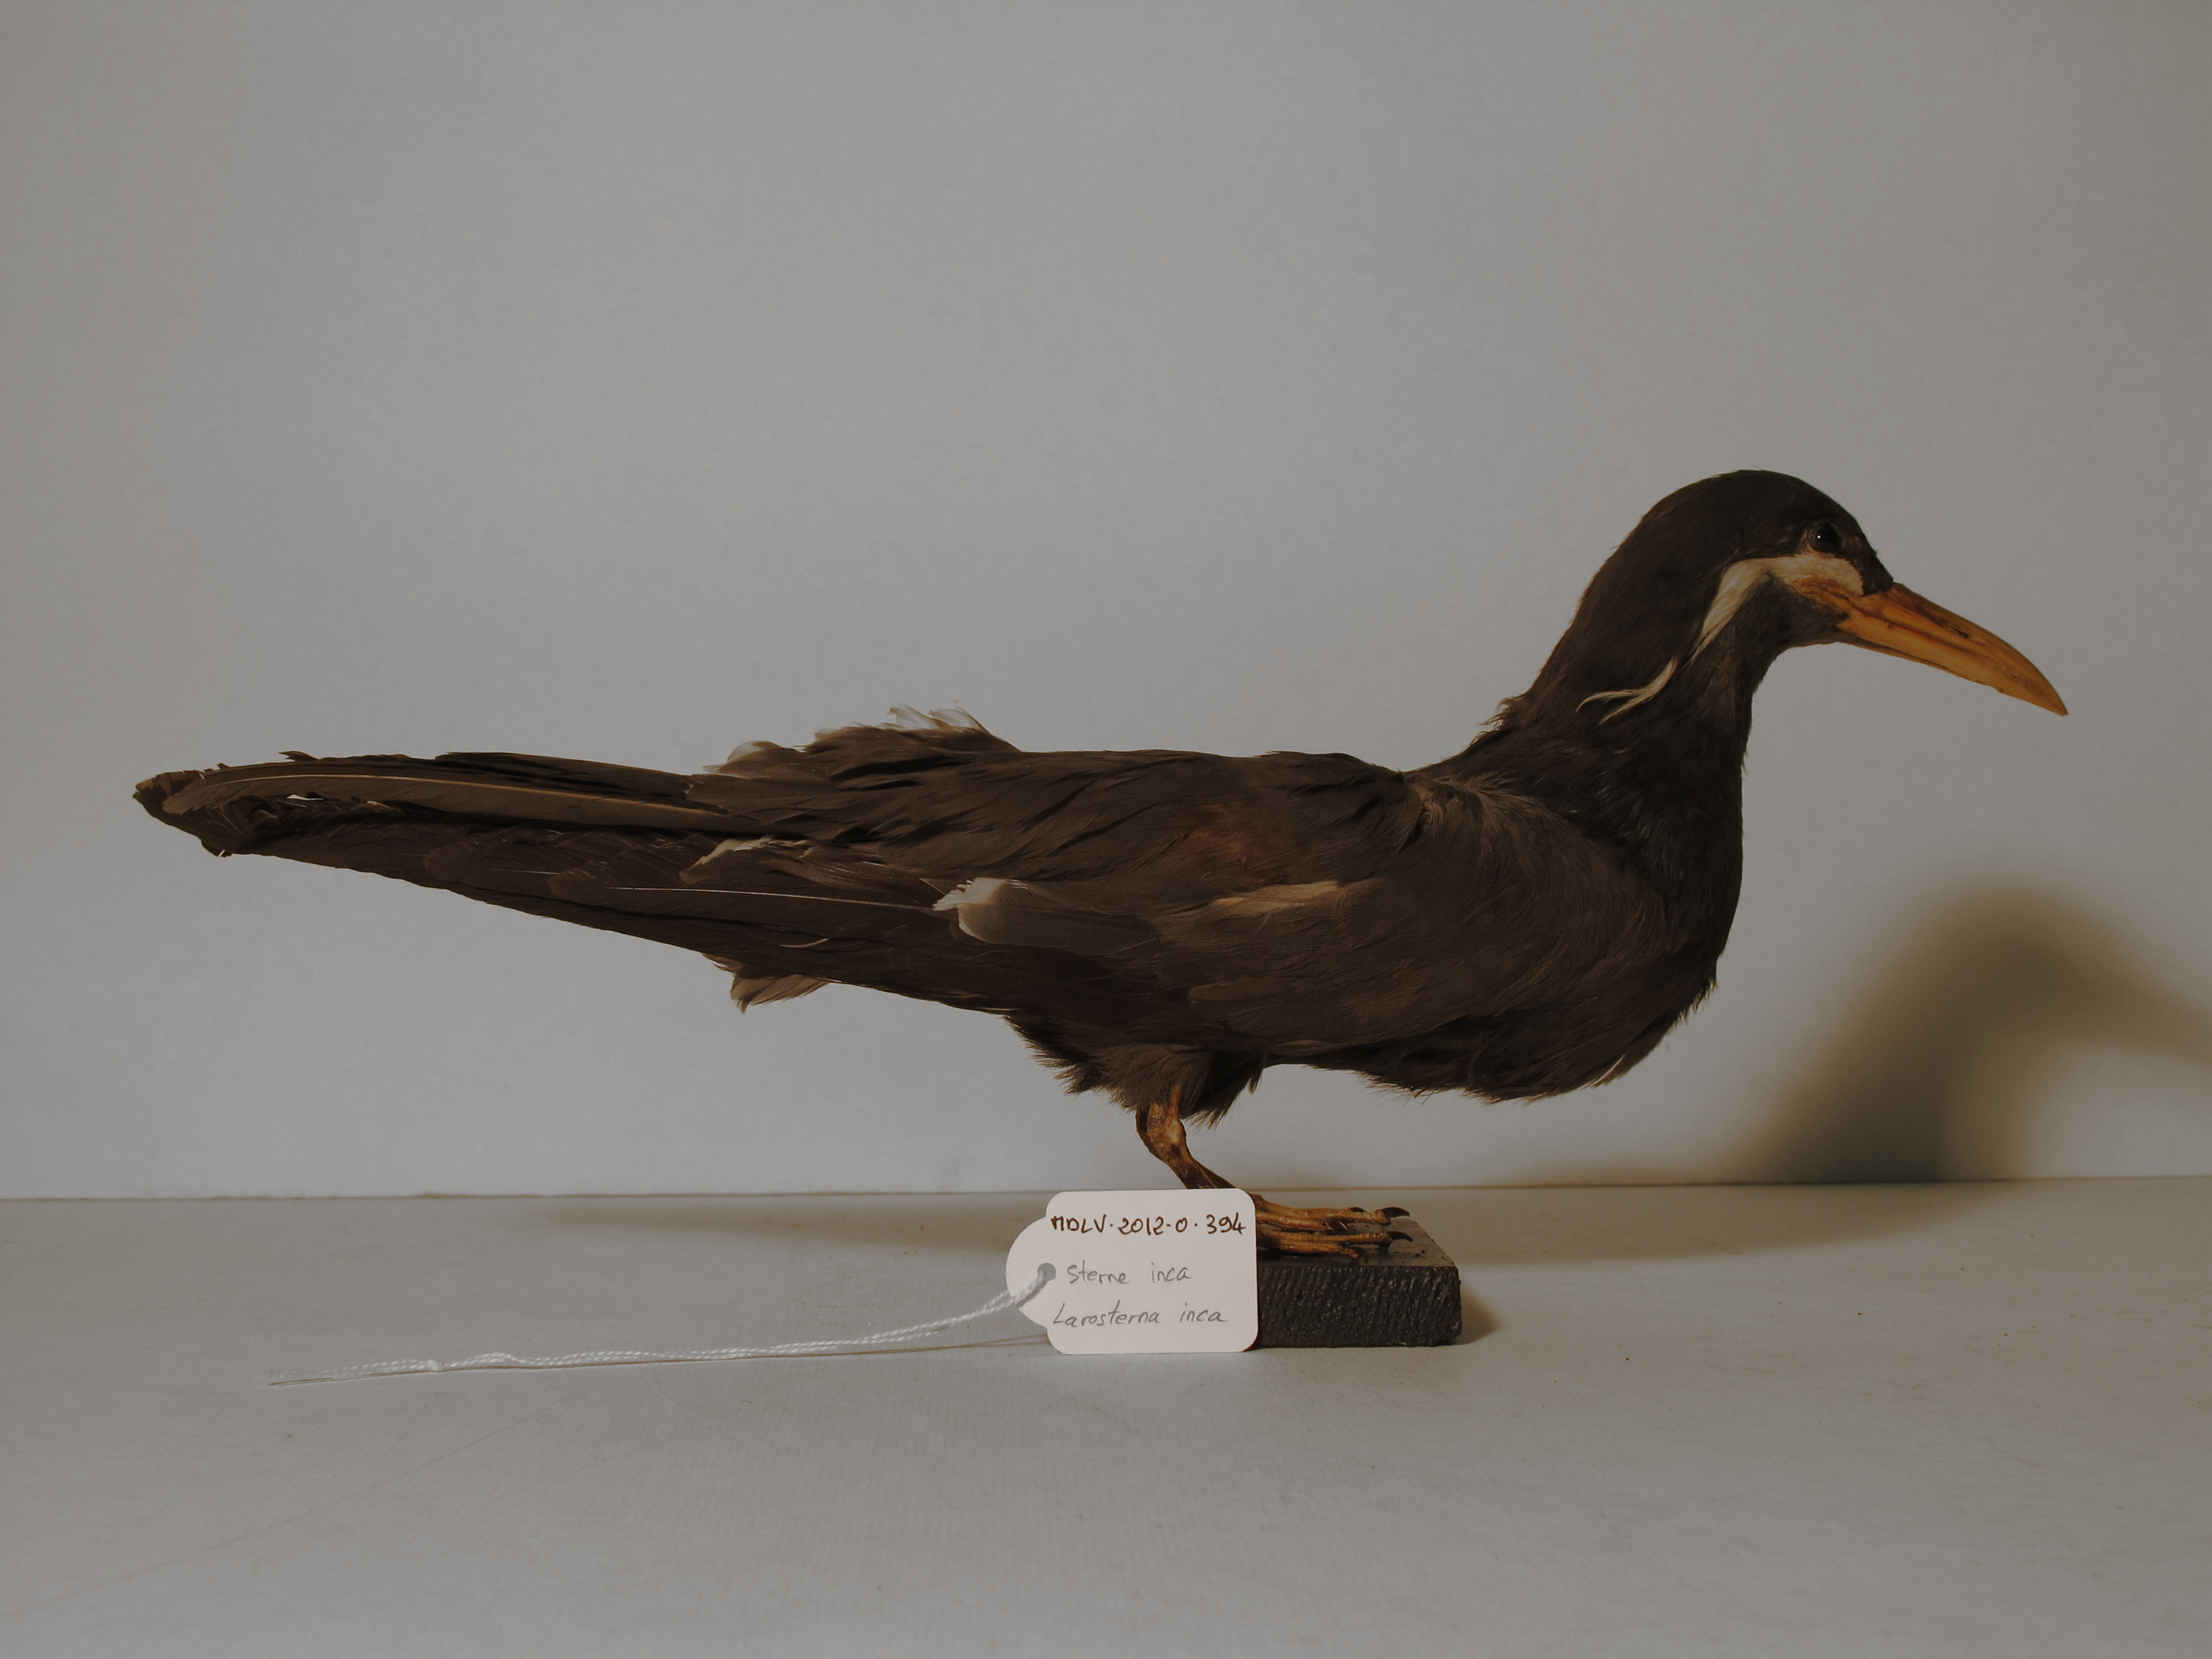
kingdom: Animalia
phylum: Chordata
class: Aves
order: Charadriiformes
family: Laridae
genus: Larosterna
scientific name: Larosterna inca
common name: Inca tern
